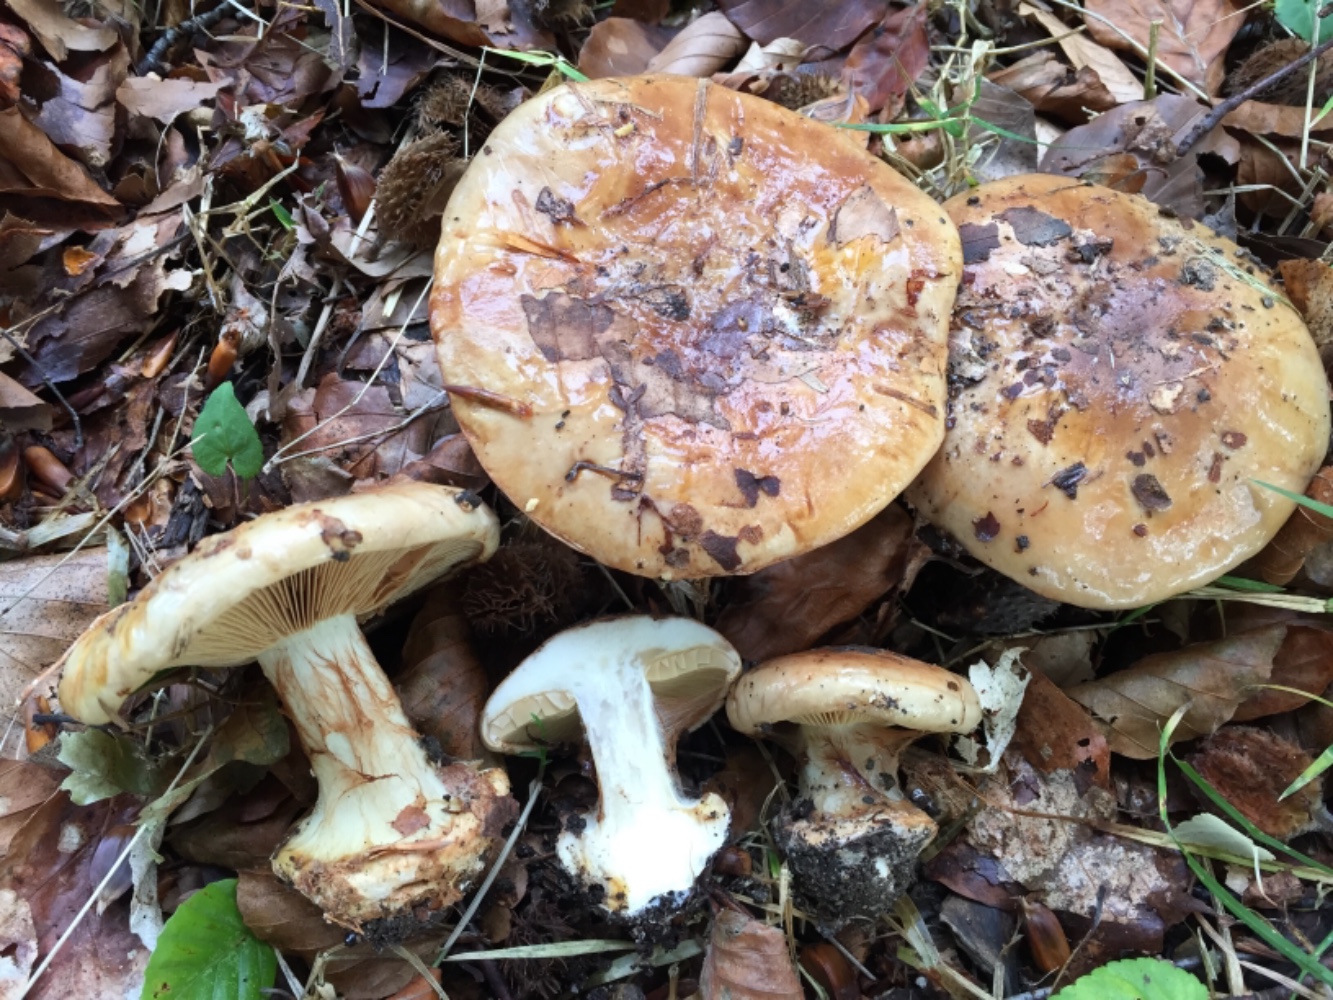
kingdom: Fungi
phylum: Basidiomycota
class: Agaricomycetes
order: Agaricales
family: Cortinariaceae
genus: Calonarius
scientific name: Calonarius humolens
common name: radise-slørhat
